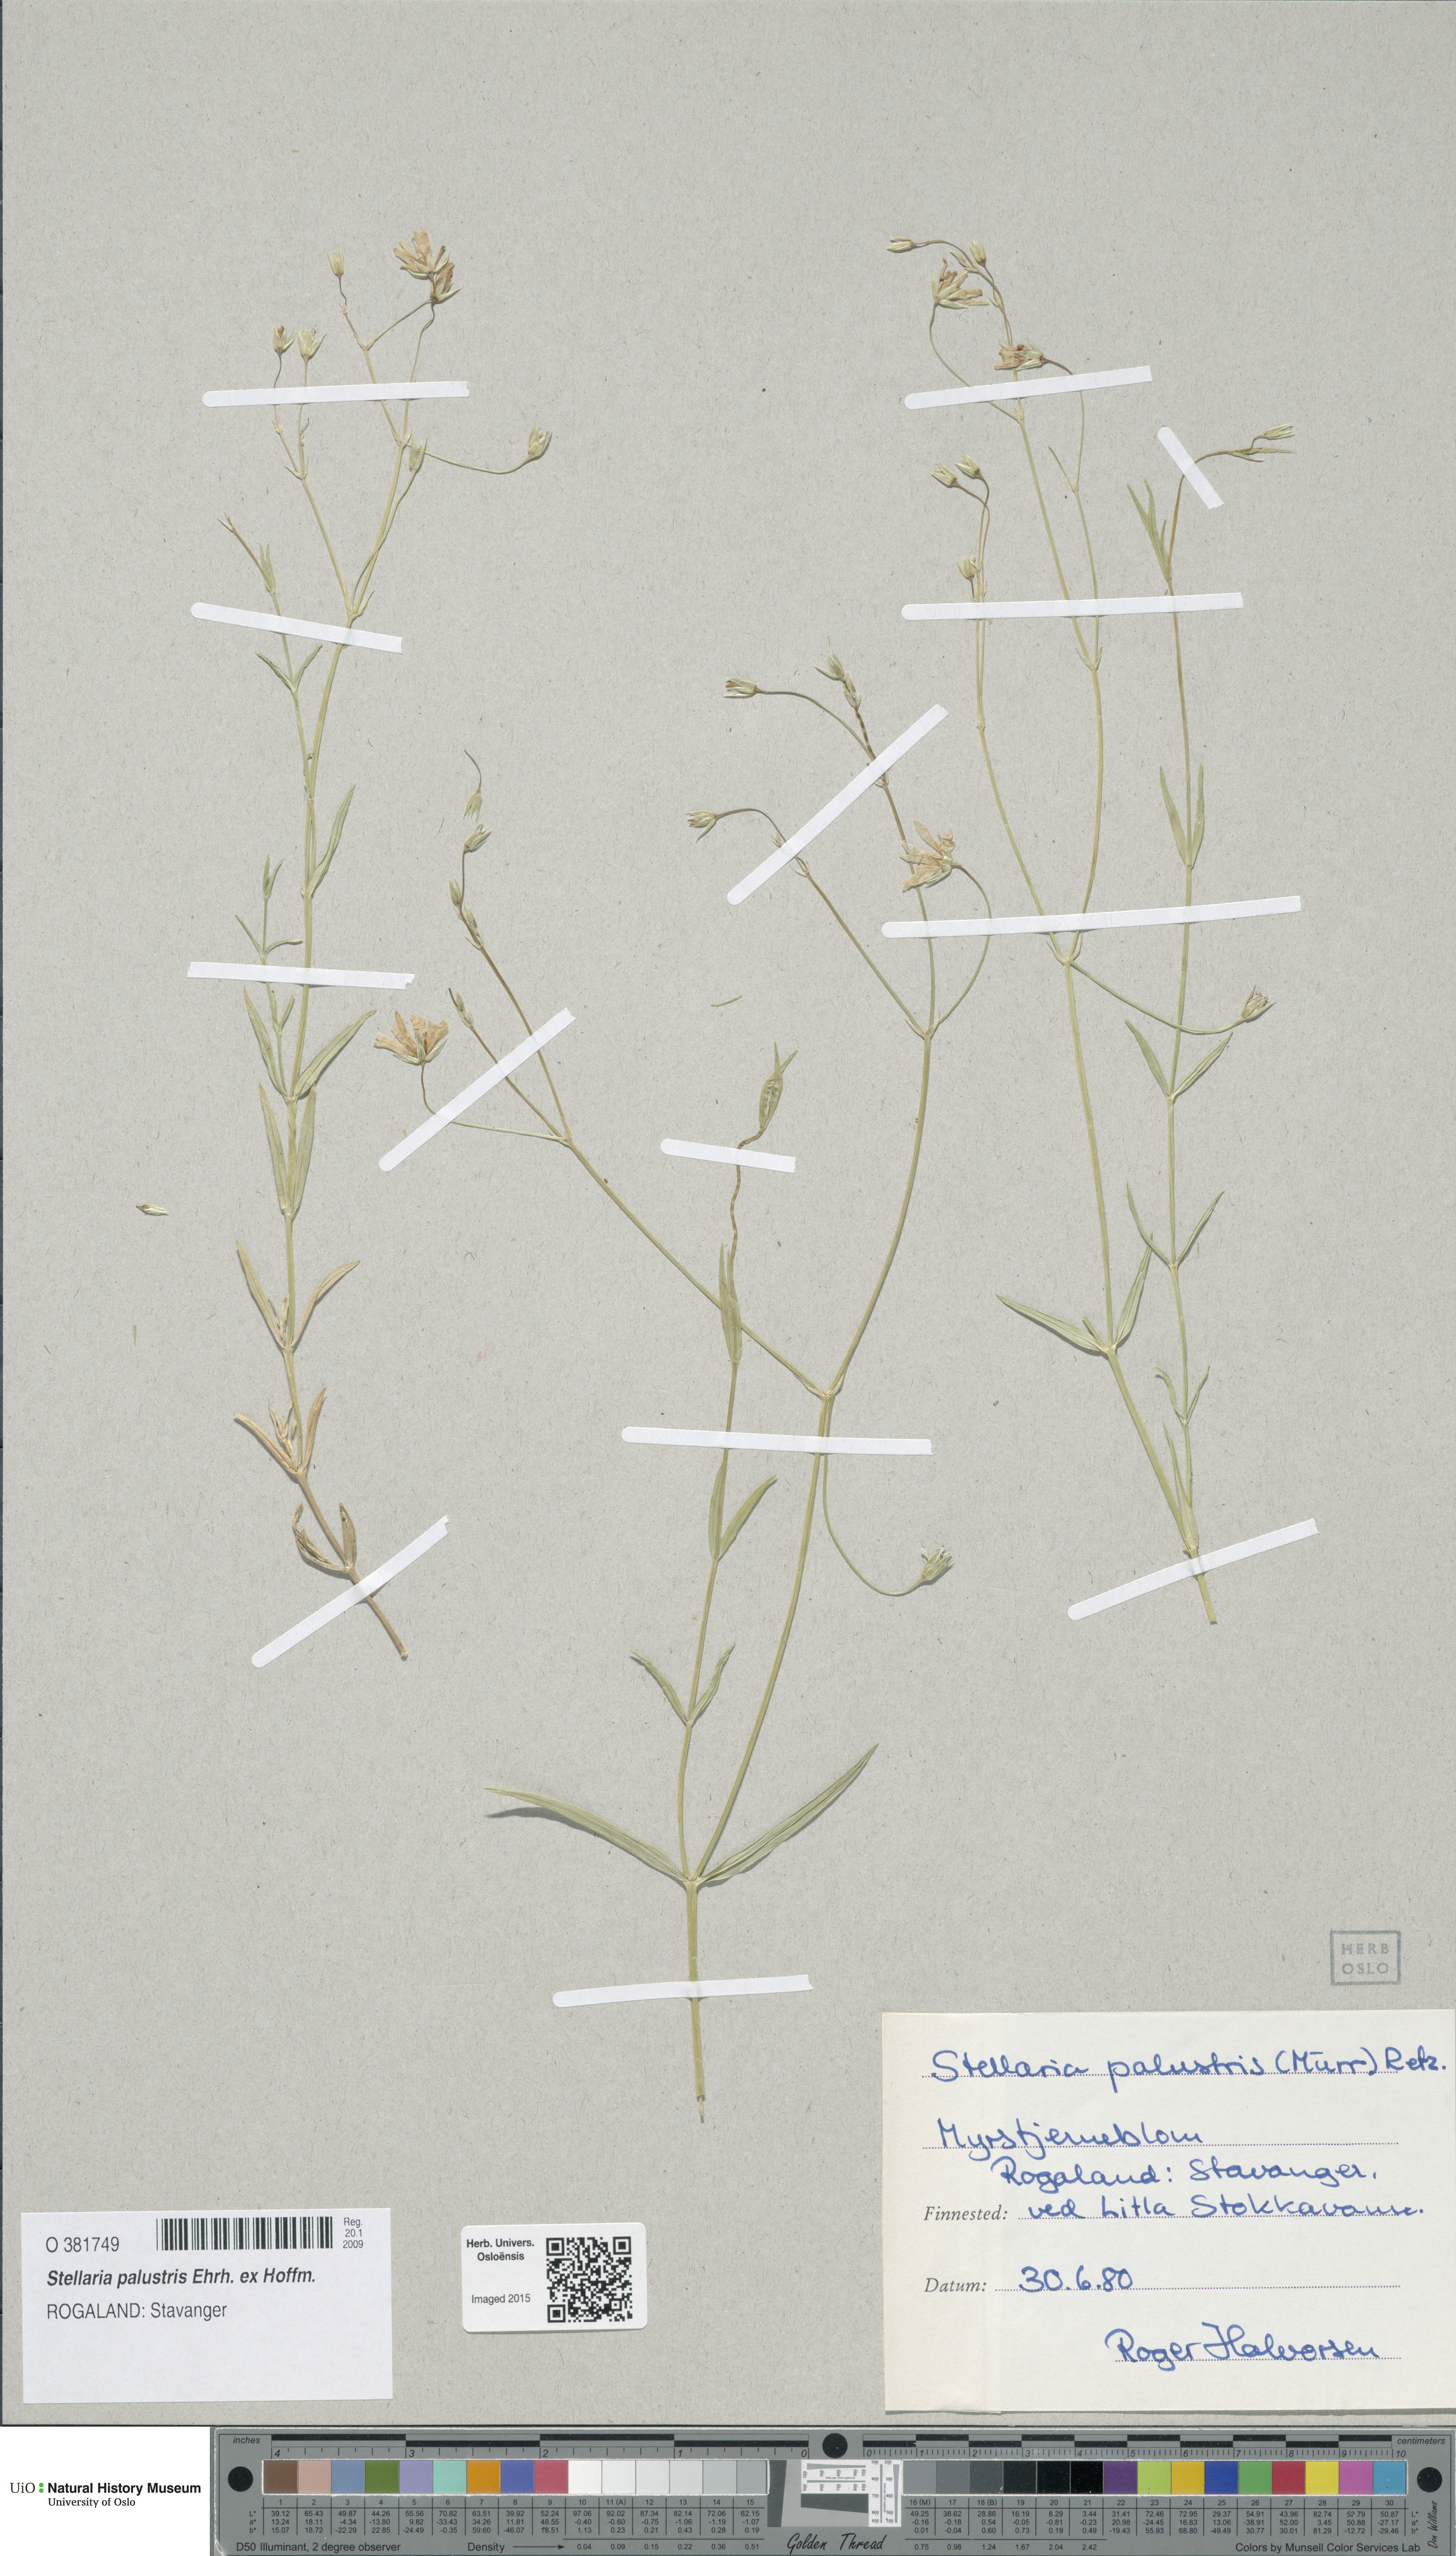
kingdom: Plantae
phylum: Tracheophyta
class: Magnoliopsida
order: Caryophyllales
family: Caryophyllaceae
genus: Stellaria
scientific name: Stellaria palustris
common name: Marsh stitchwort
